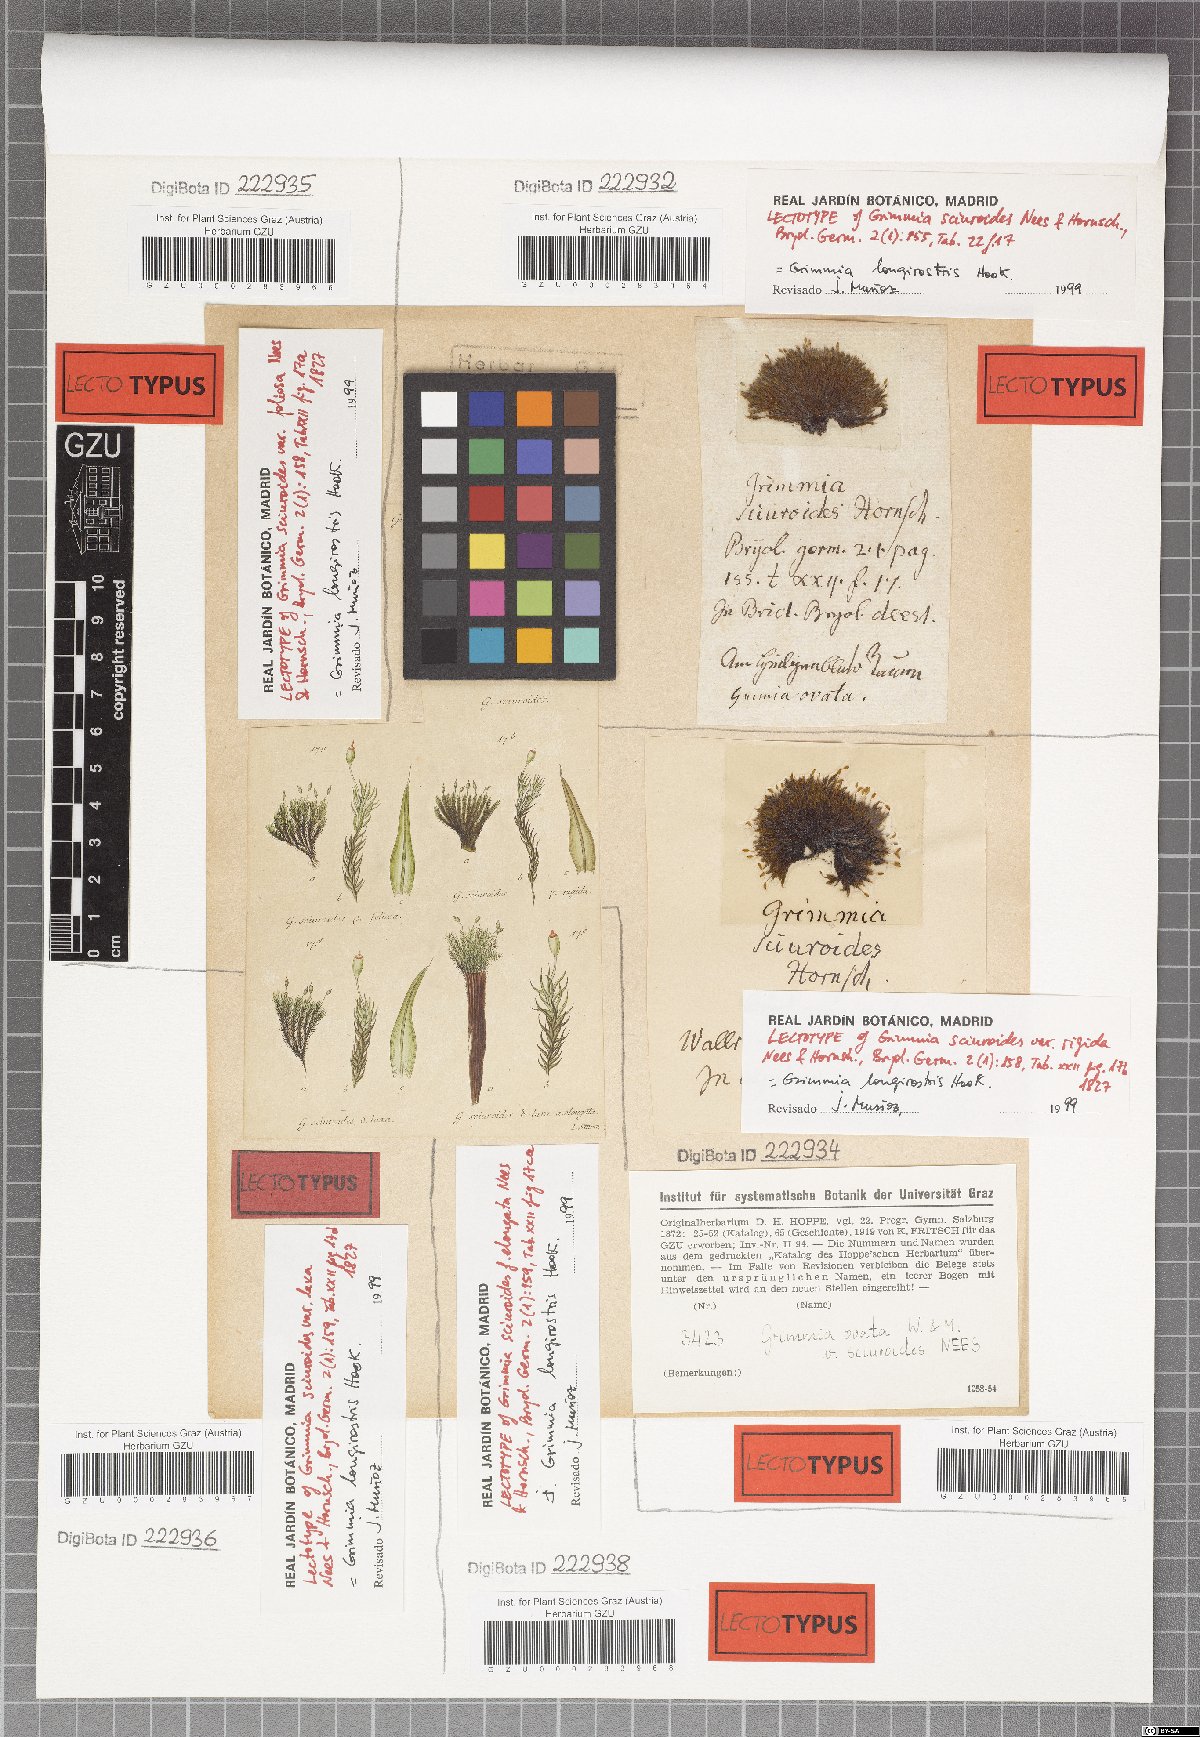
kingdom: Plantae
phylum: Bryophyta
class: Bryopsida
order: Grimmiales
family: Grimmiaceae
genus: Grimmia
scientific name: Grimmia longirostris
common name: Long-beaked grimmia
